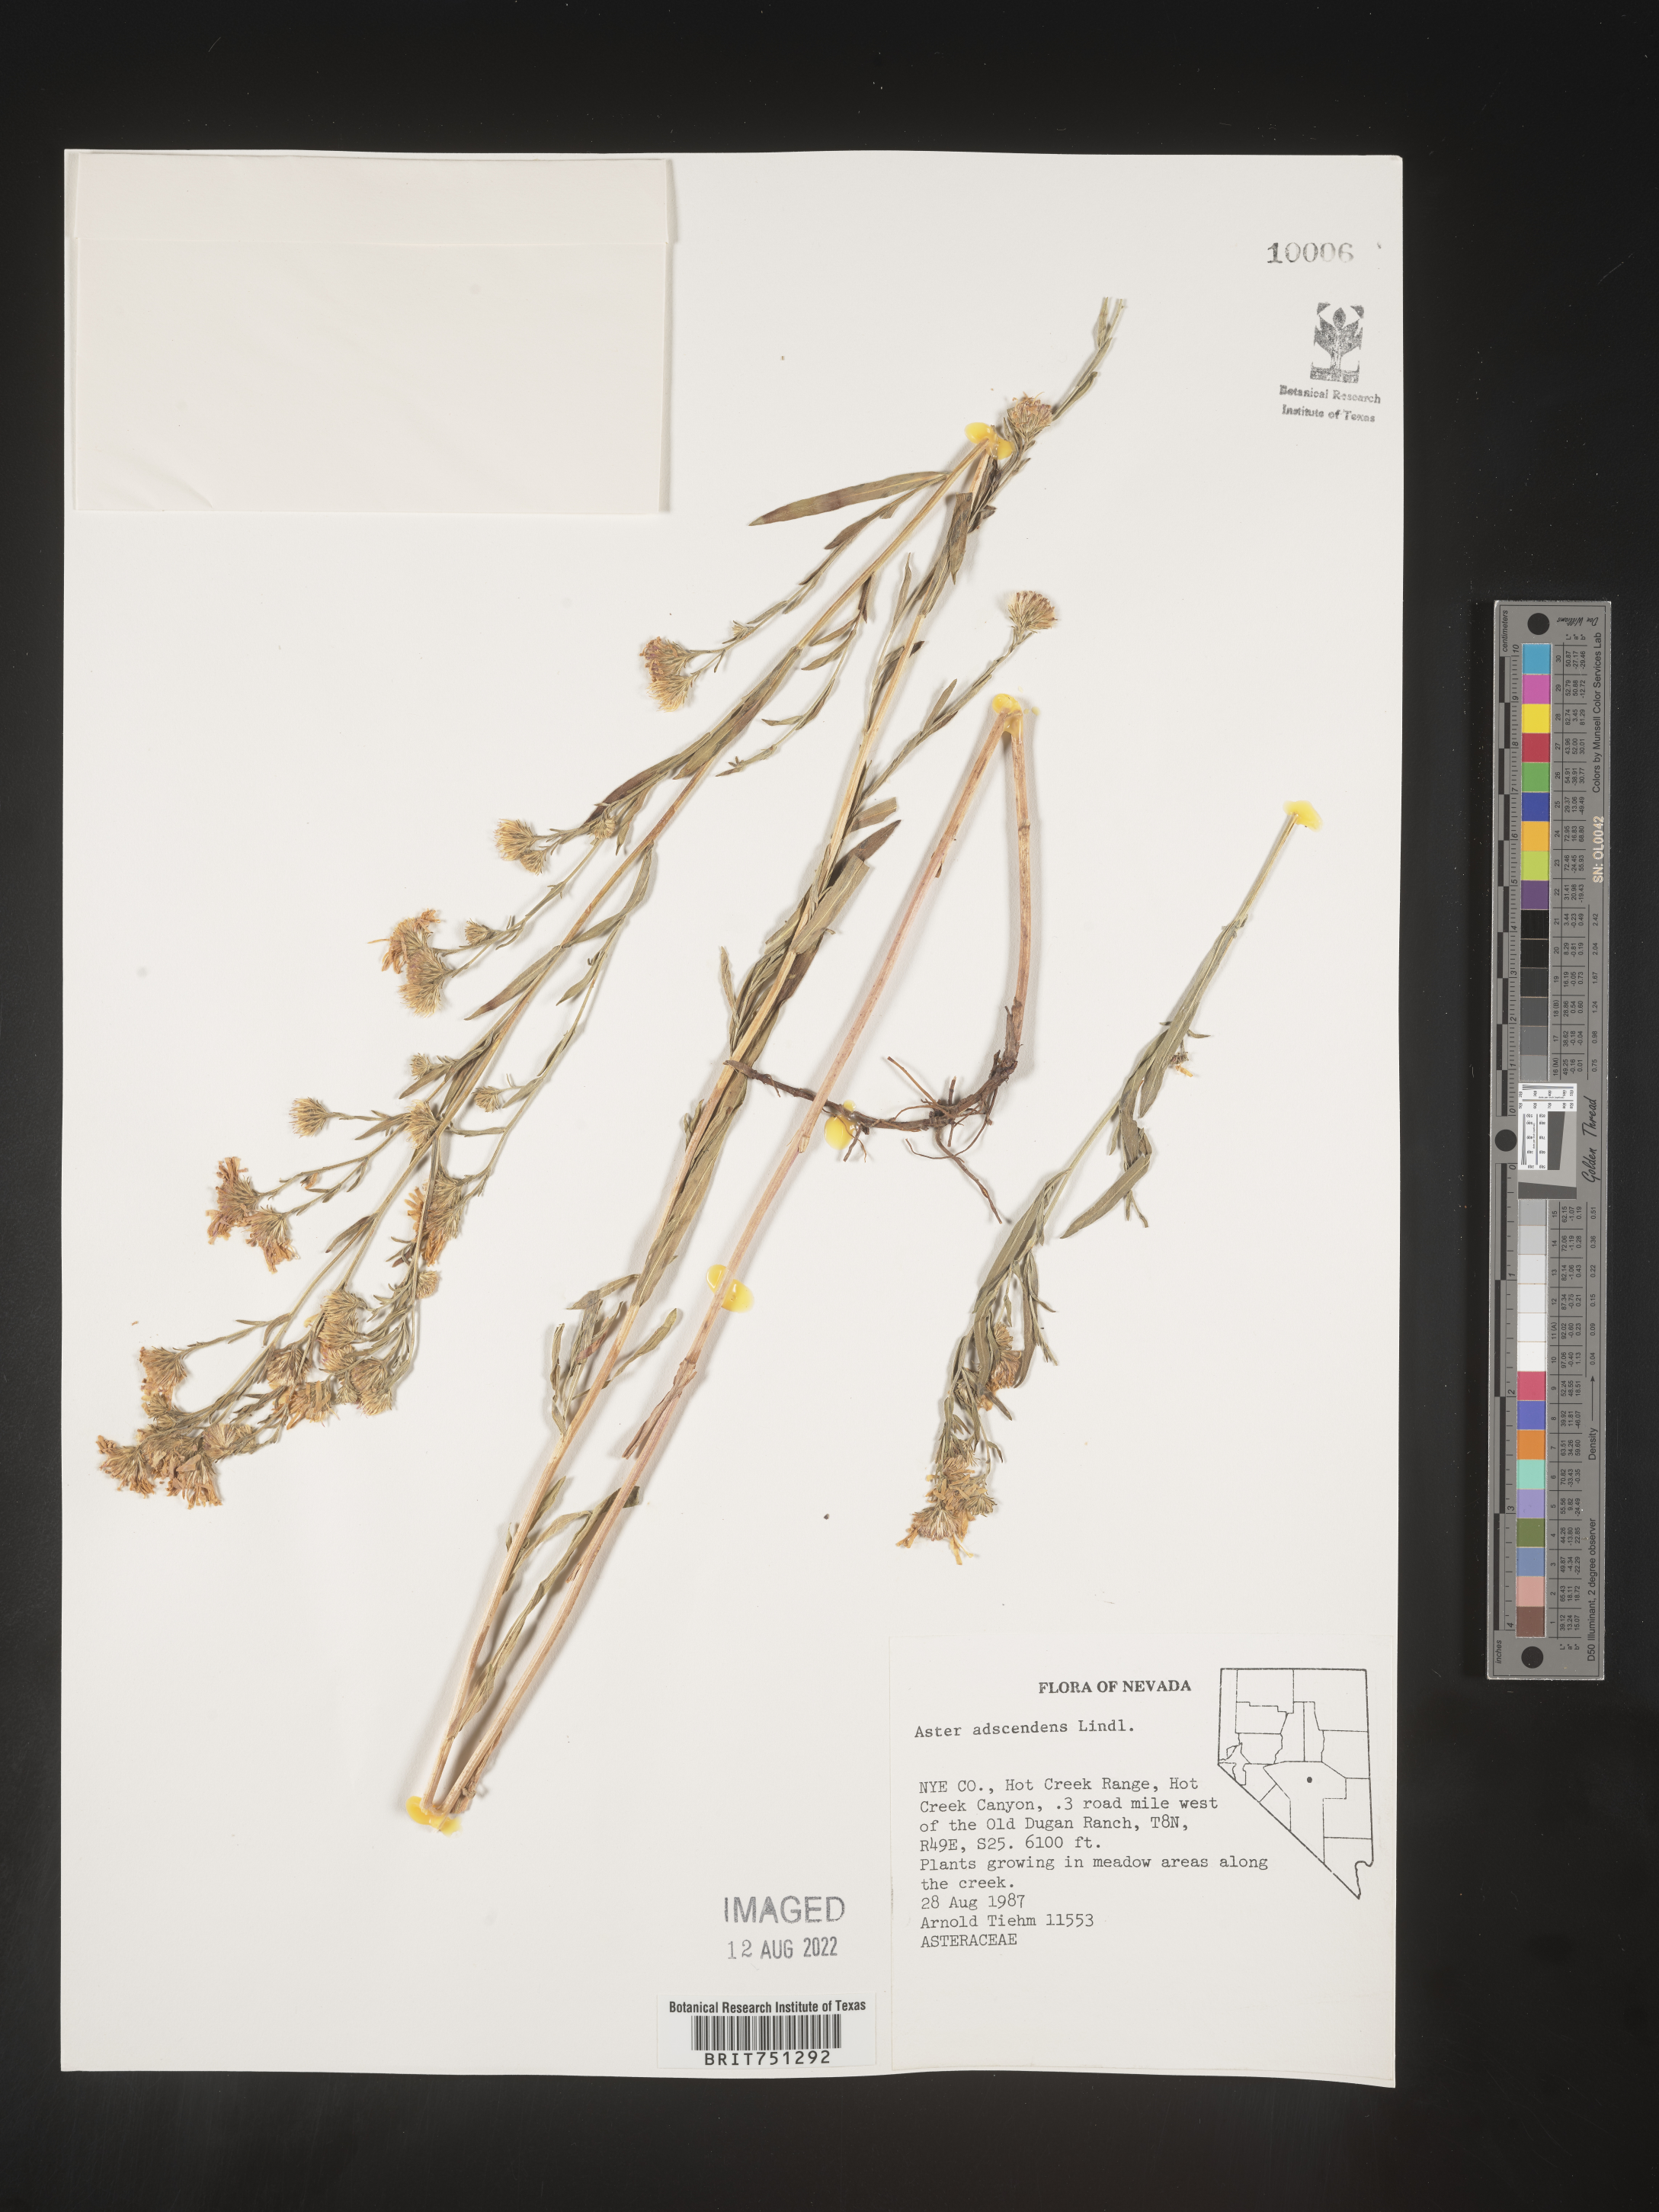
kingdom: Plantae
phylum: Tracheophyta
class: Magnoliopsida
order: Asterales
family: Asteraceae
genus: Symphyotrichum
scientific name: Symphyotrichum ascendens
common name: Intermountain aster
